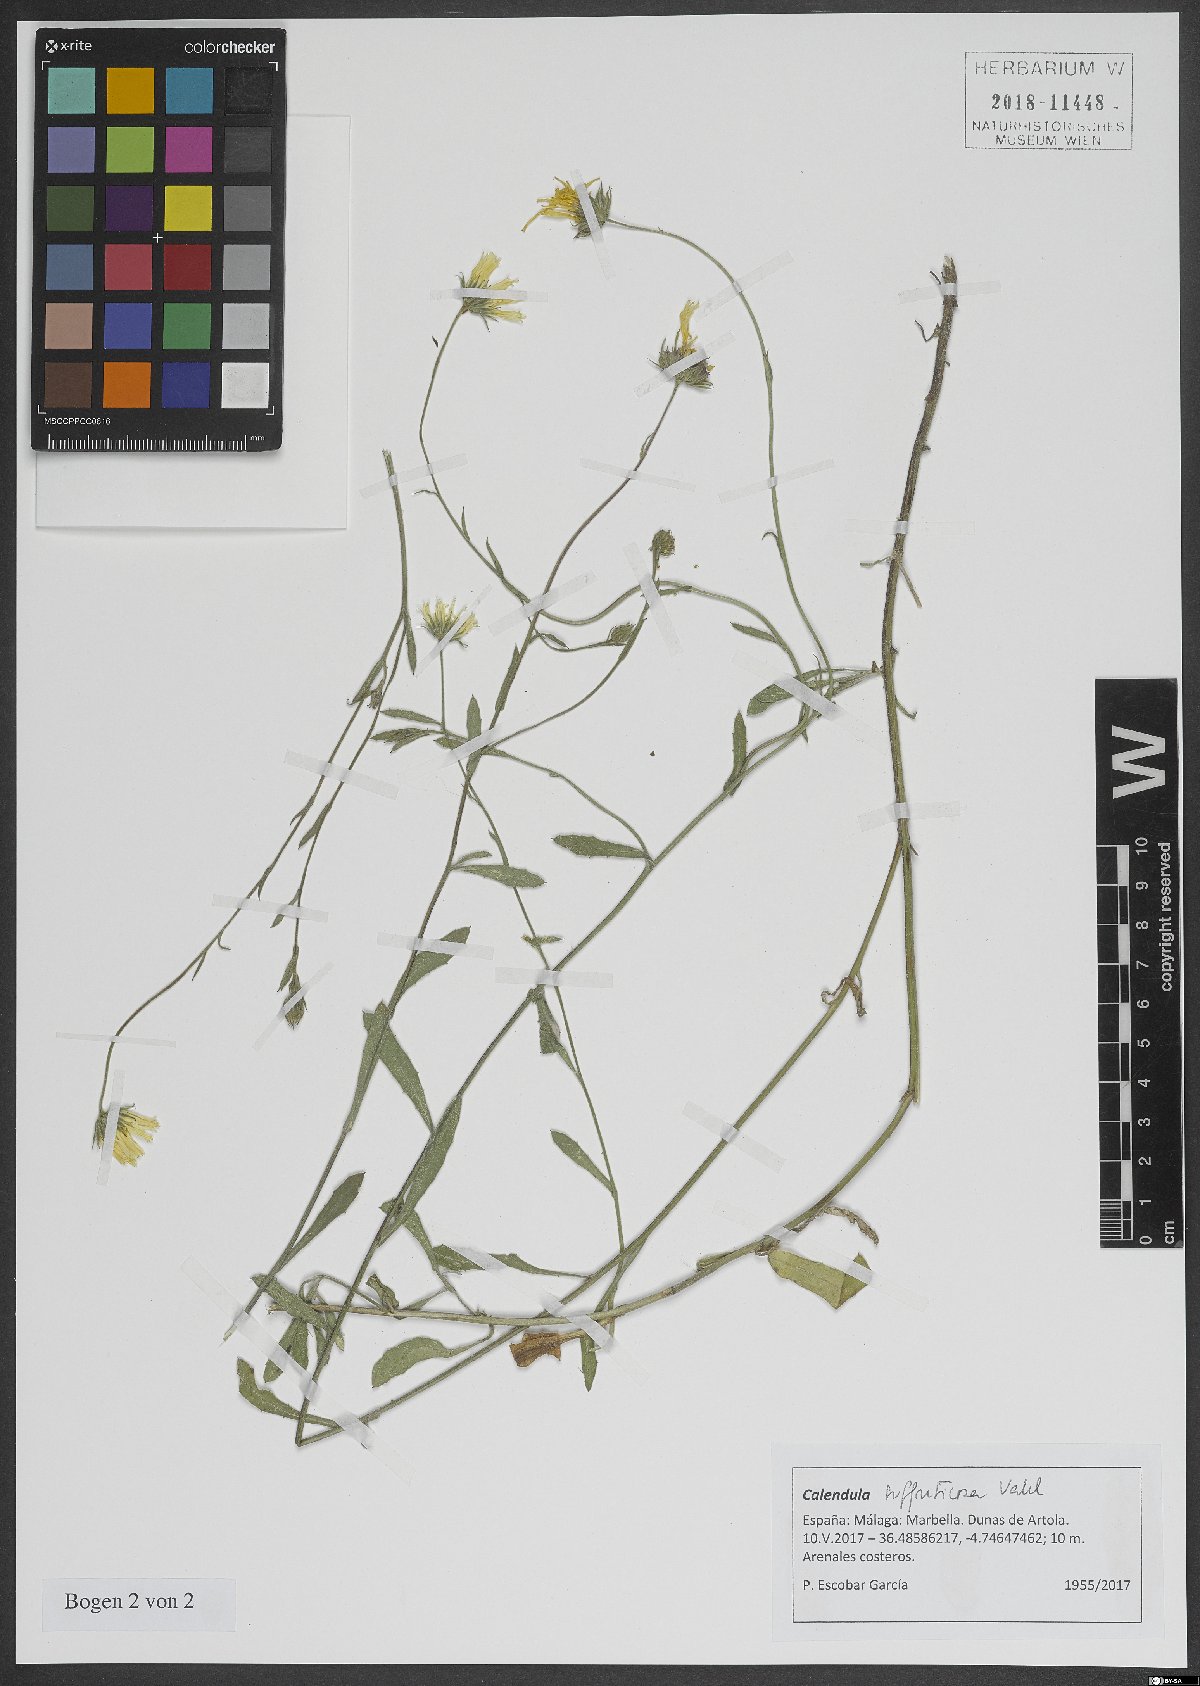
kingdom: Plantae
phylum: Tracheophyta
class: Magnoliopsida
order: Asterales
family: Asteraceae
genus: Calendula
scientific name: Calendula suffruticosa
